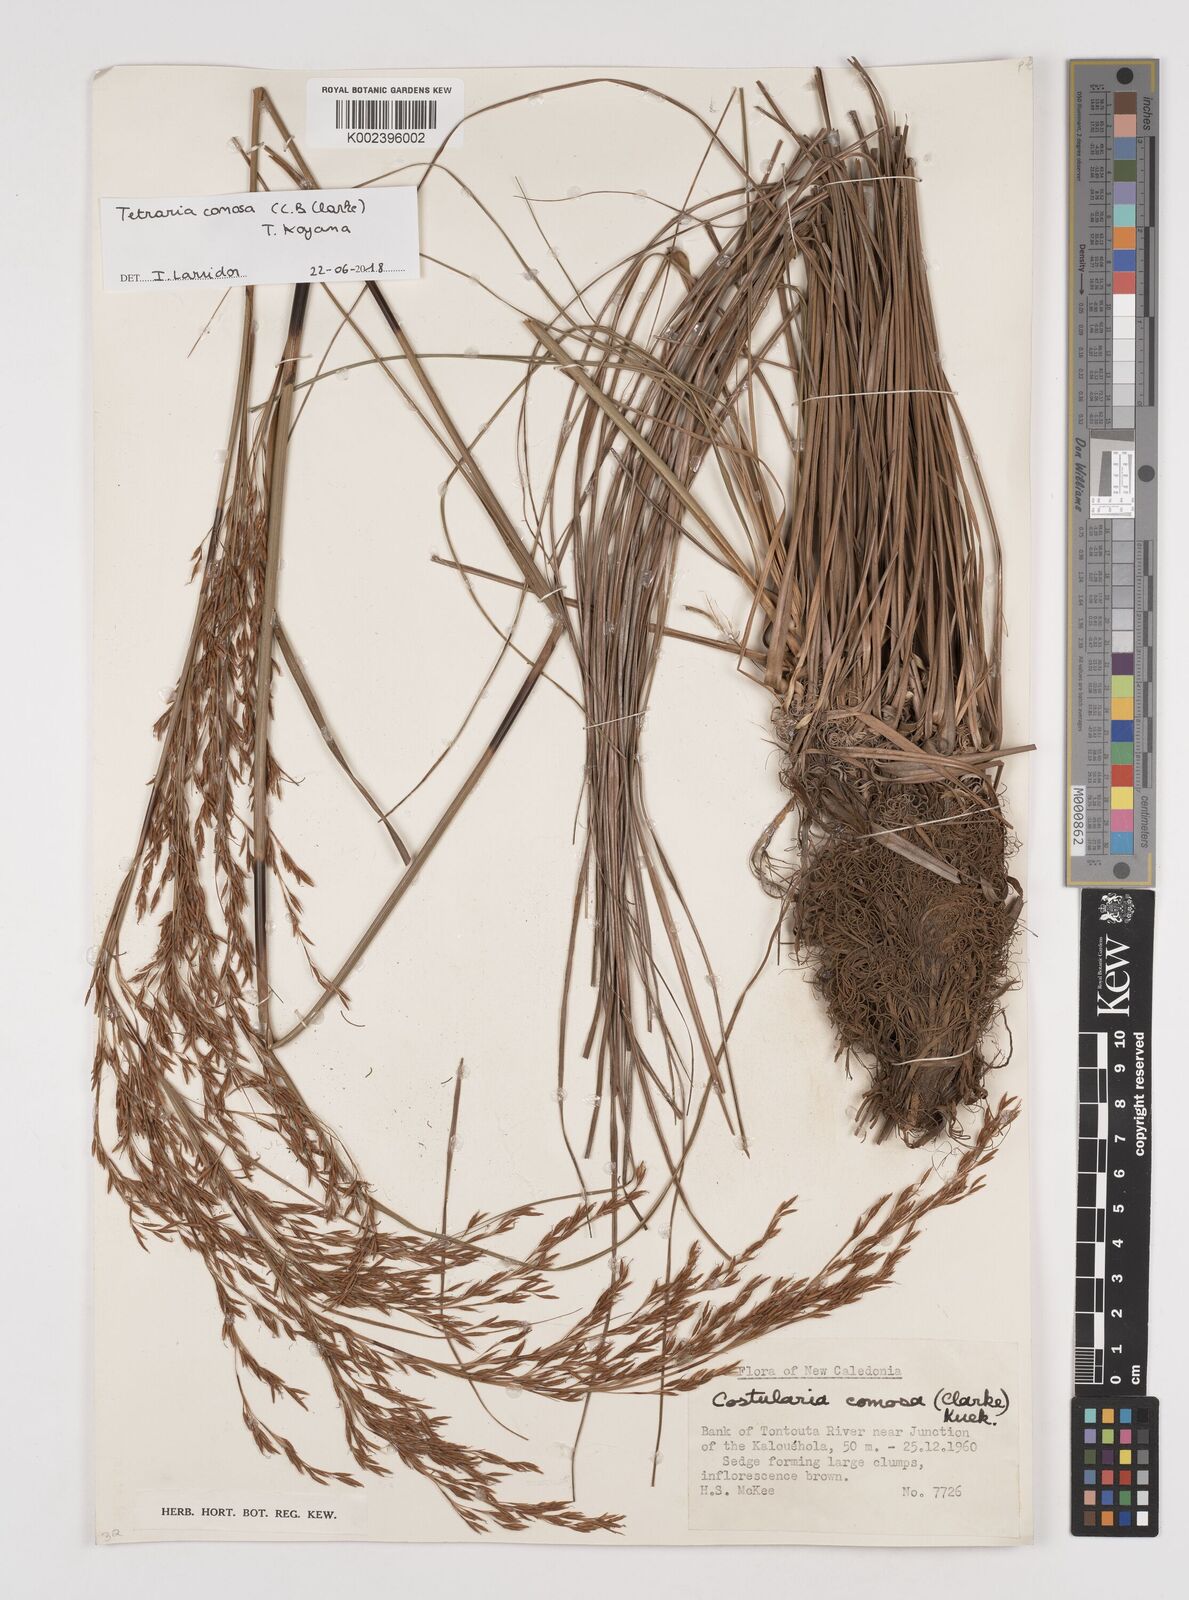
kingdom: Plantae
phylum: Tracheophyta
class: Liliopsida
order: Poales
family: Cyperaceae
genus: Tetraria
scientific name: Tetraria comosa
